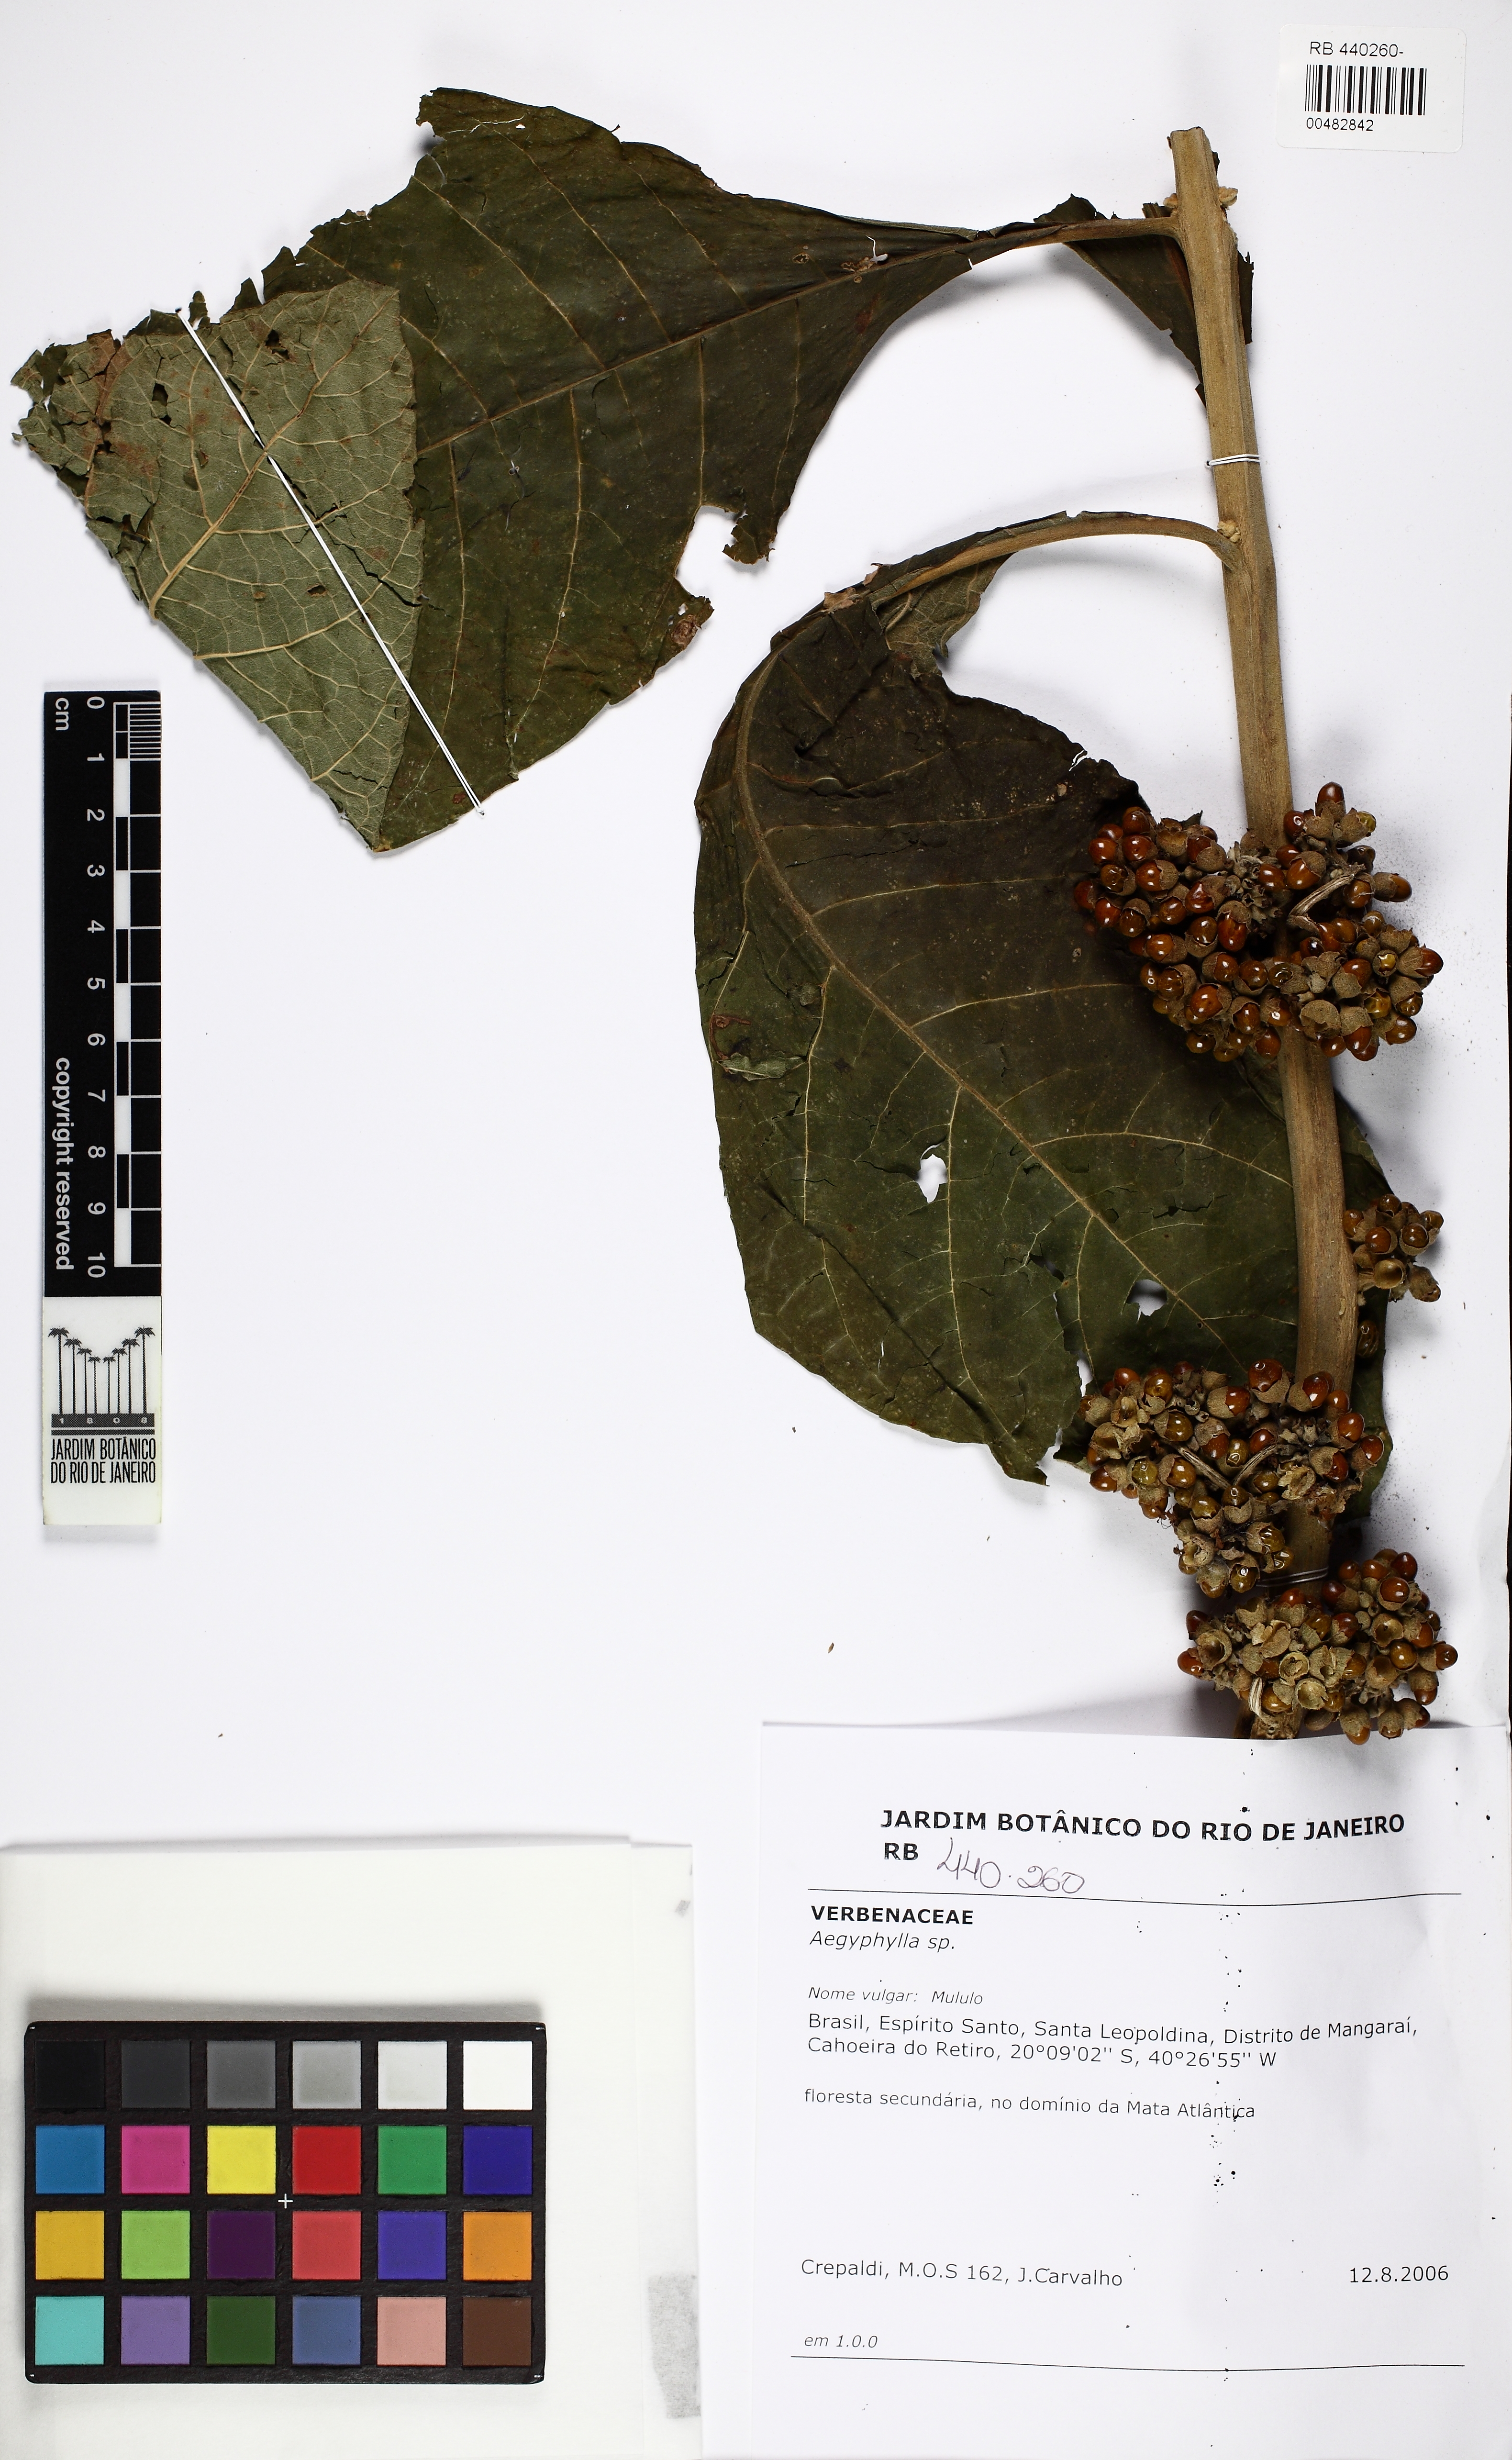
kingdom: Plantae
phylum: Tracheophyta
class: Magnoliopsida
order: Lamiales
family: Lamiaceae
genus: Aegiphila
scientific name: Aegiphila
